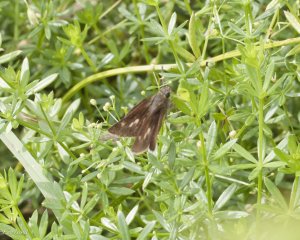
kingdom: Animalia
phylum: Arthropoda
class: Insecta
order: Lepidoptera
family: Hesperiidae
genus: Polites
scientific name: Polites egeremet
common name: Northern Broken-Dash
